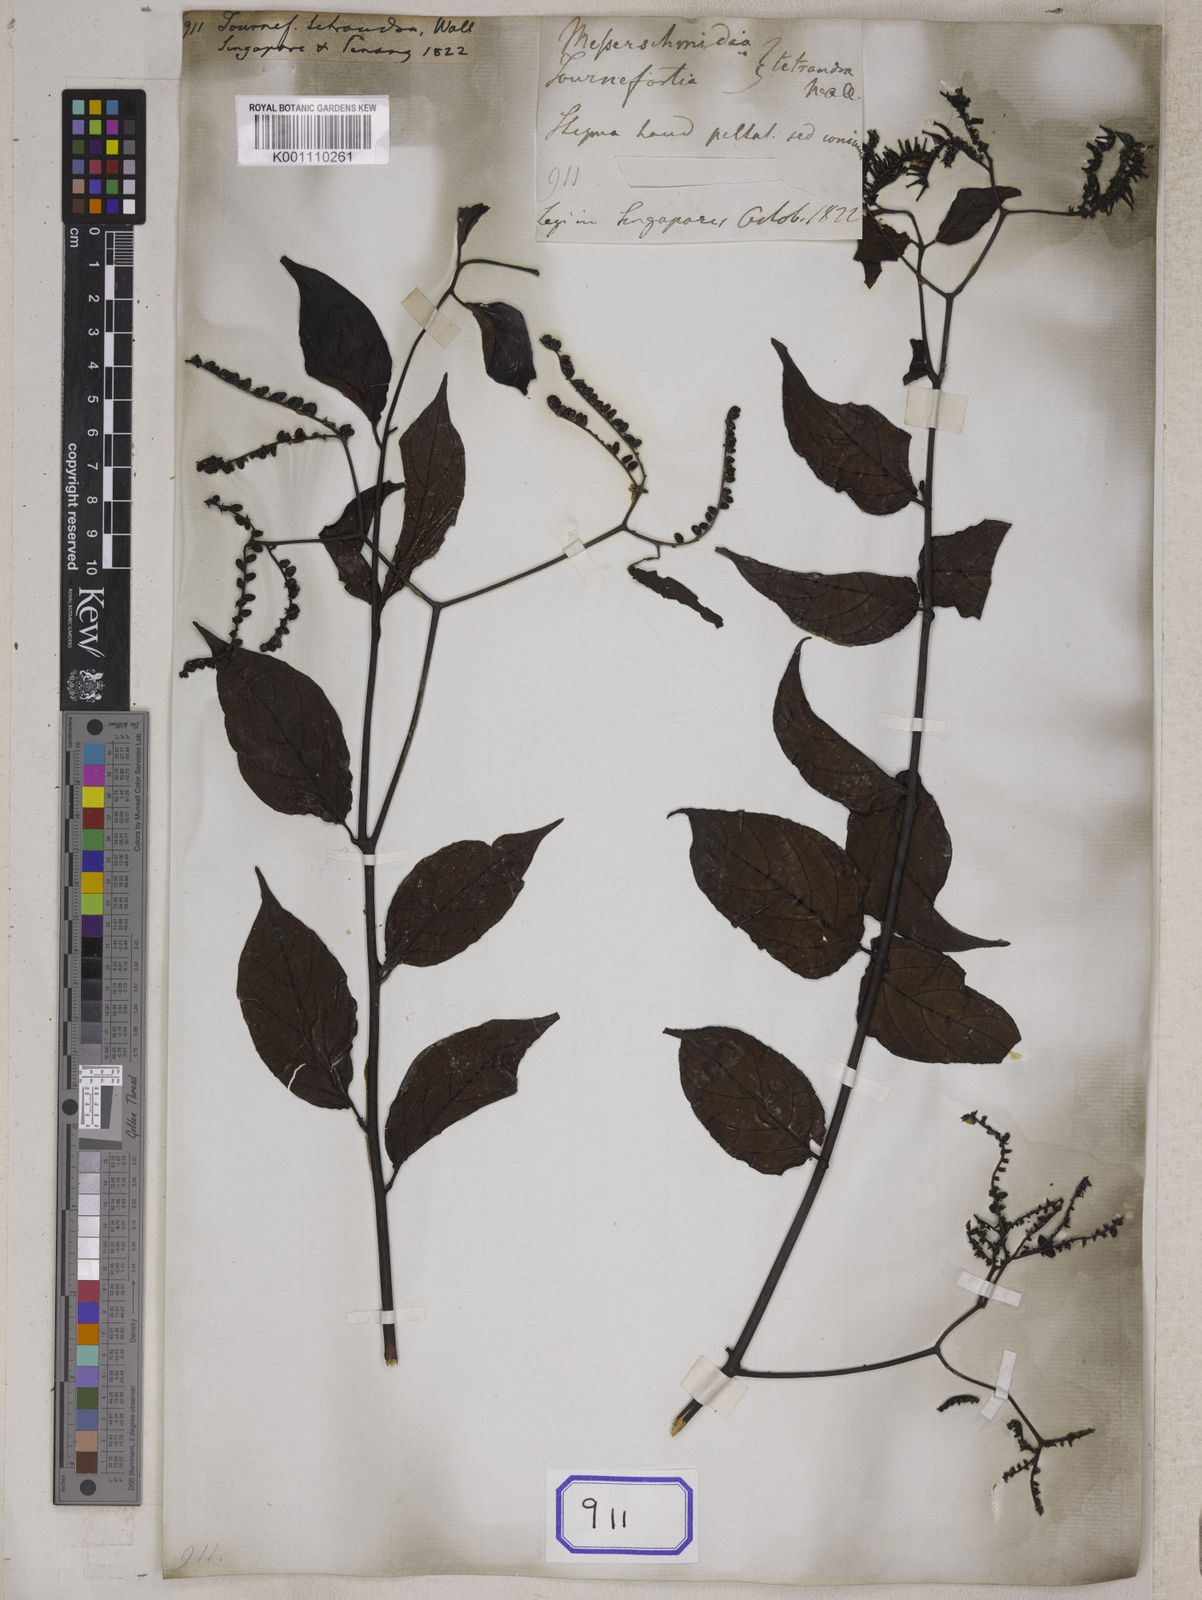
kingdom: Plantae
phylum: Tracheophyta
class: Magnoliopsida
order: Boraginales
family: Heliotropiaceae
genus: Heliotropium
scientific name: Heliotropium biblianum
